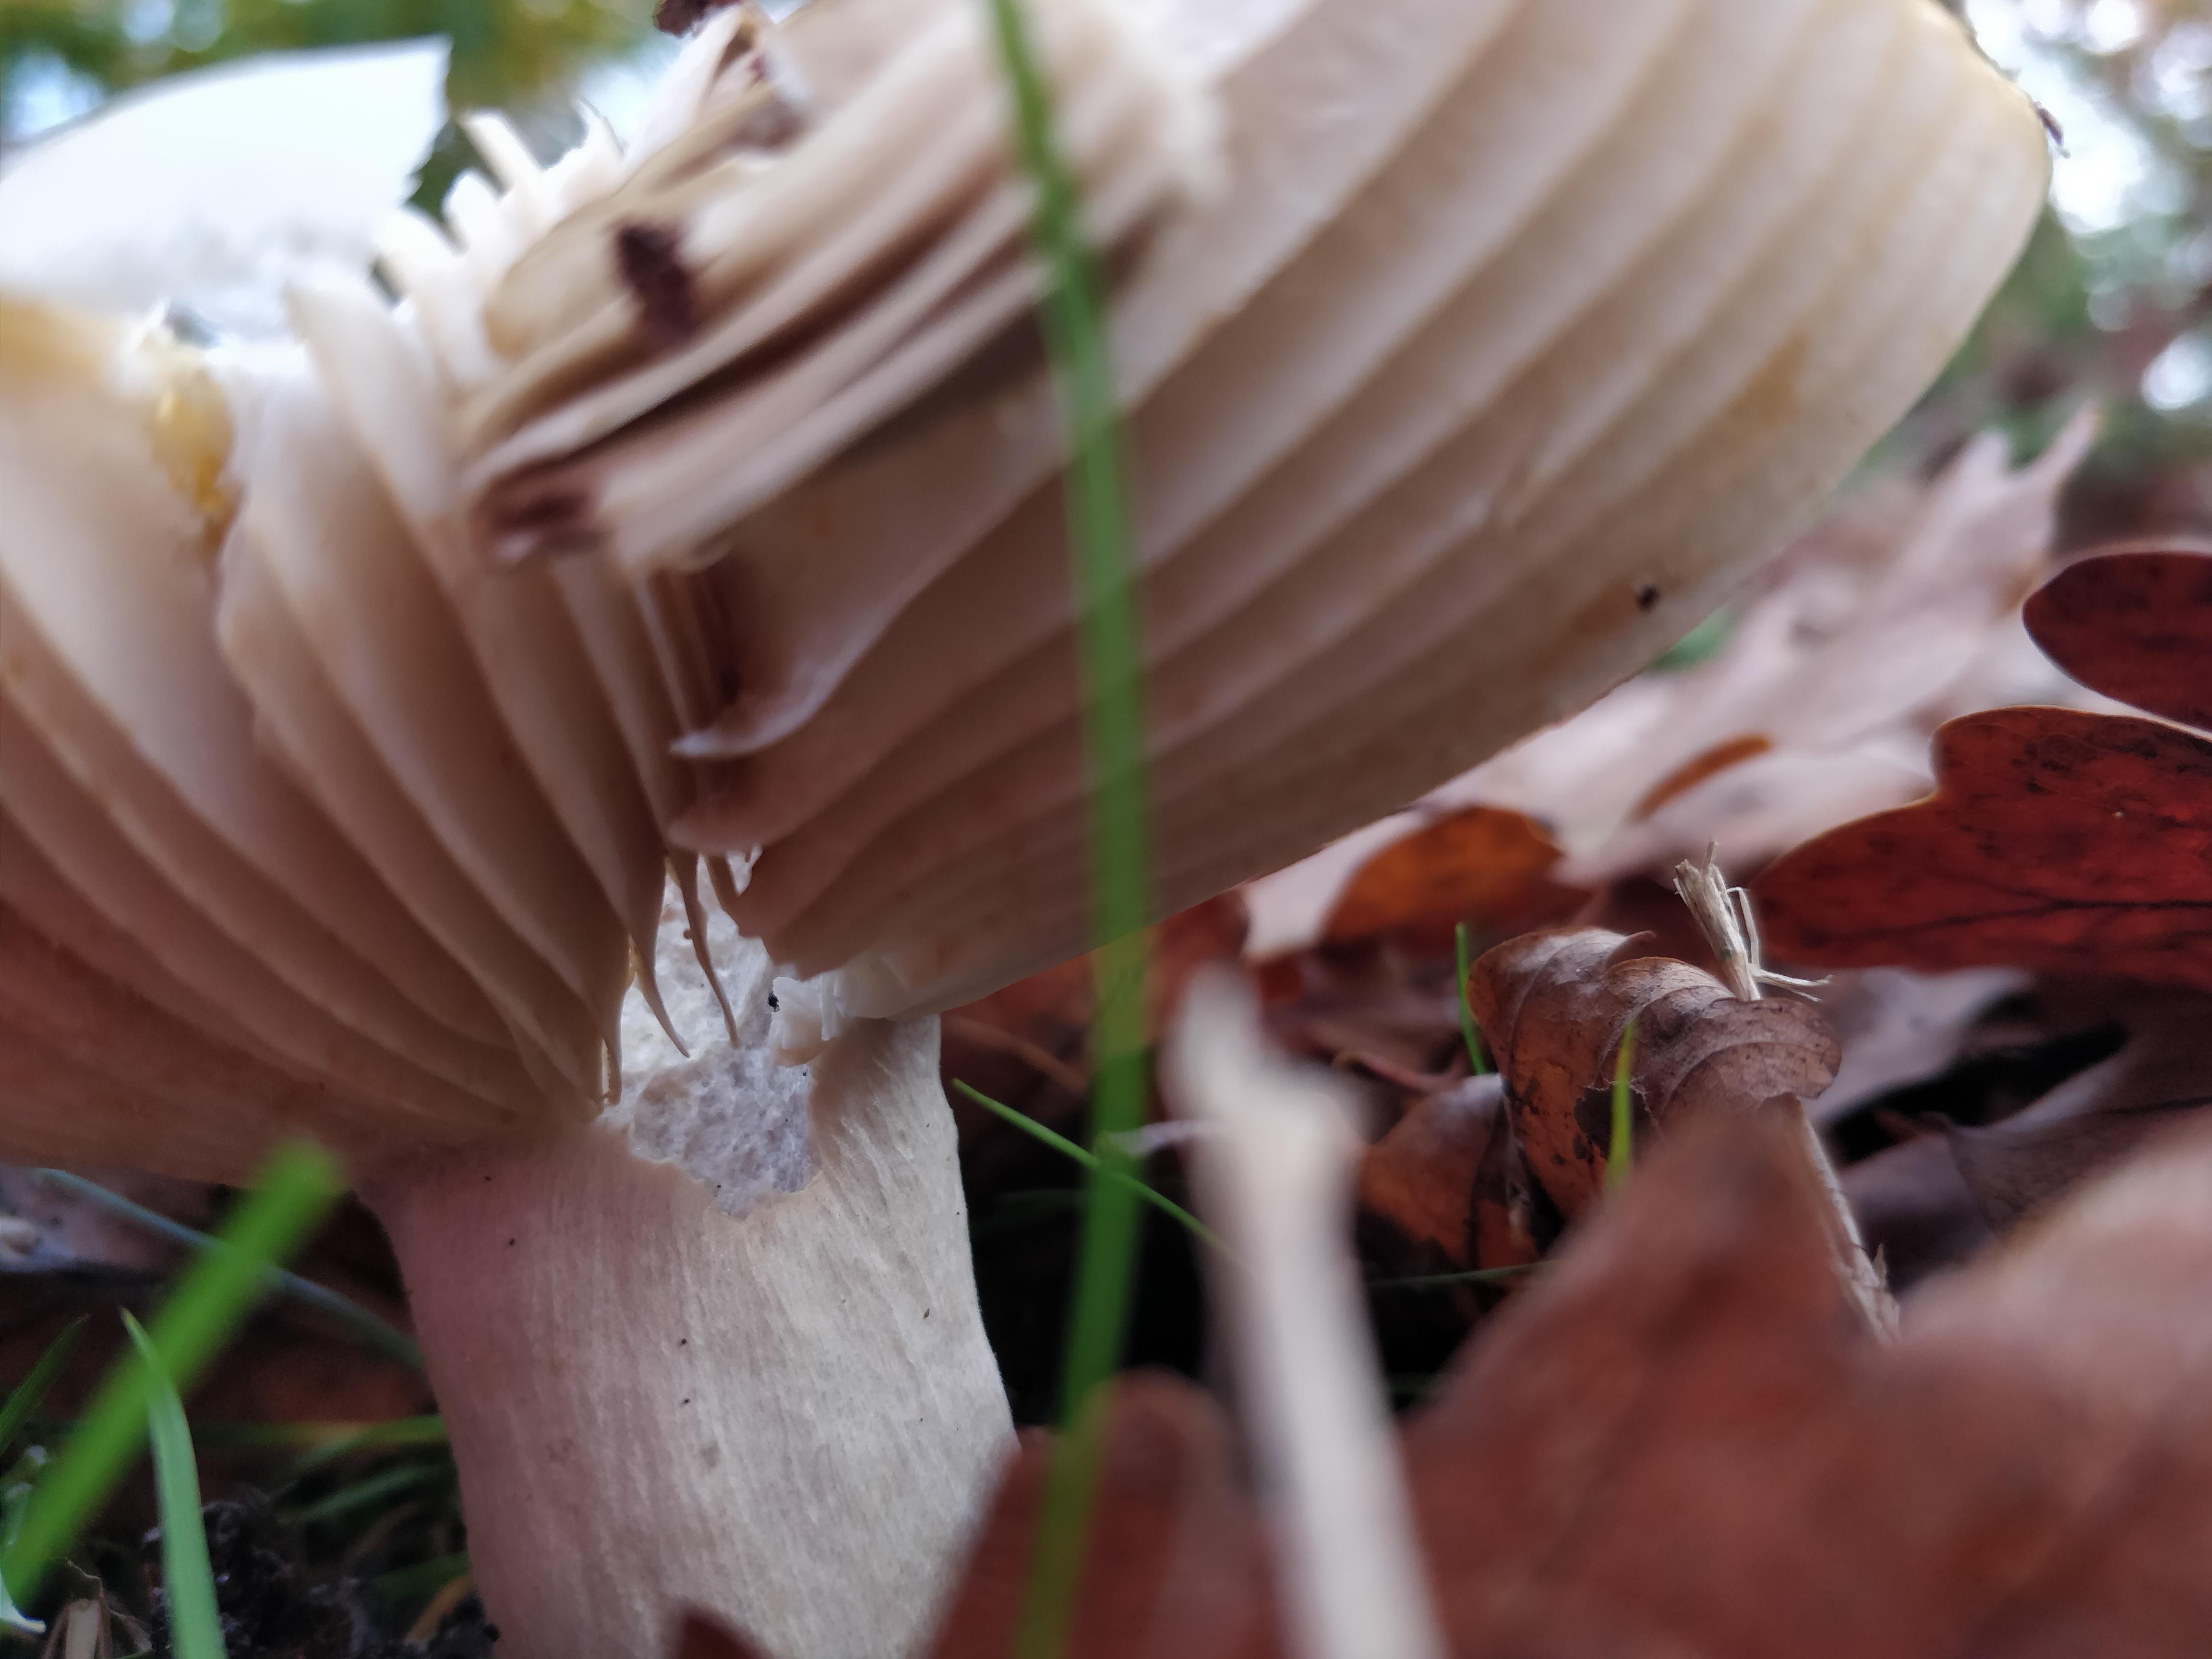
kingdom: Fungi
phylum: Basidiomycota
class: Agaricomycetes
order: Russulales
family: Russulaceae
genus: Russula
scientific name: Russula
